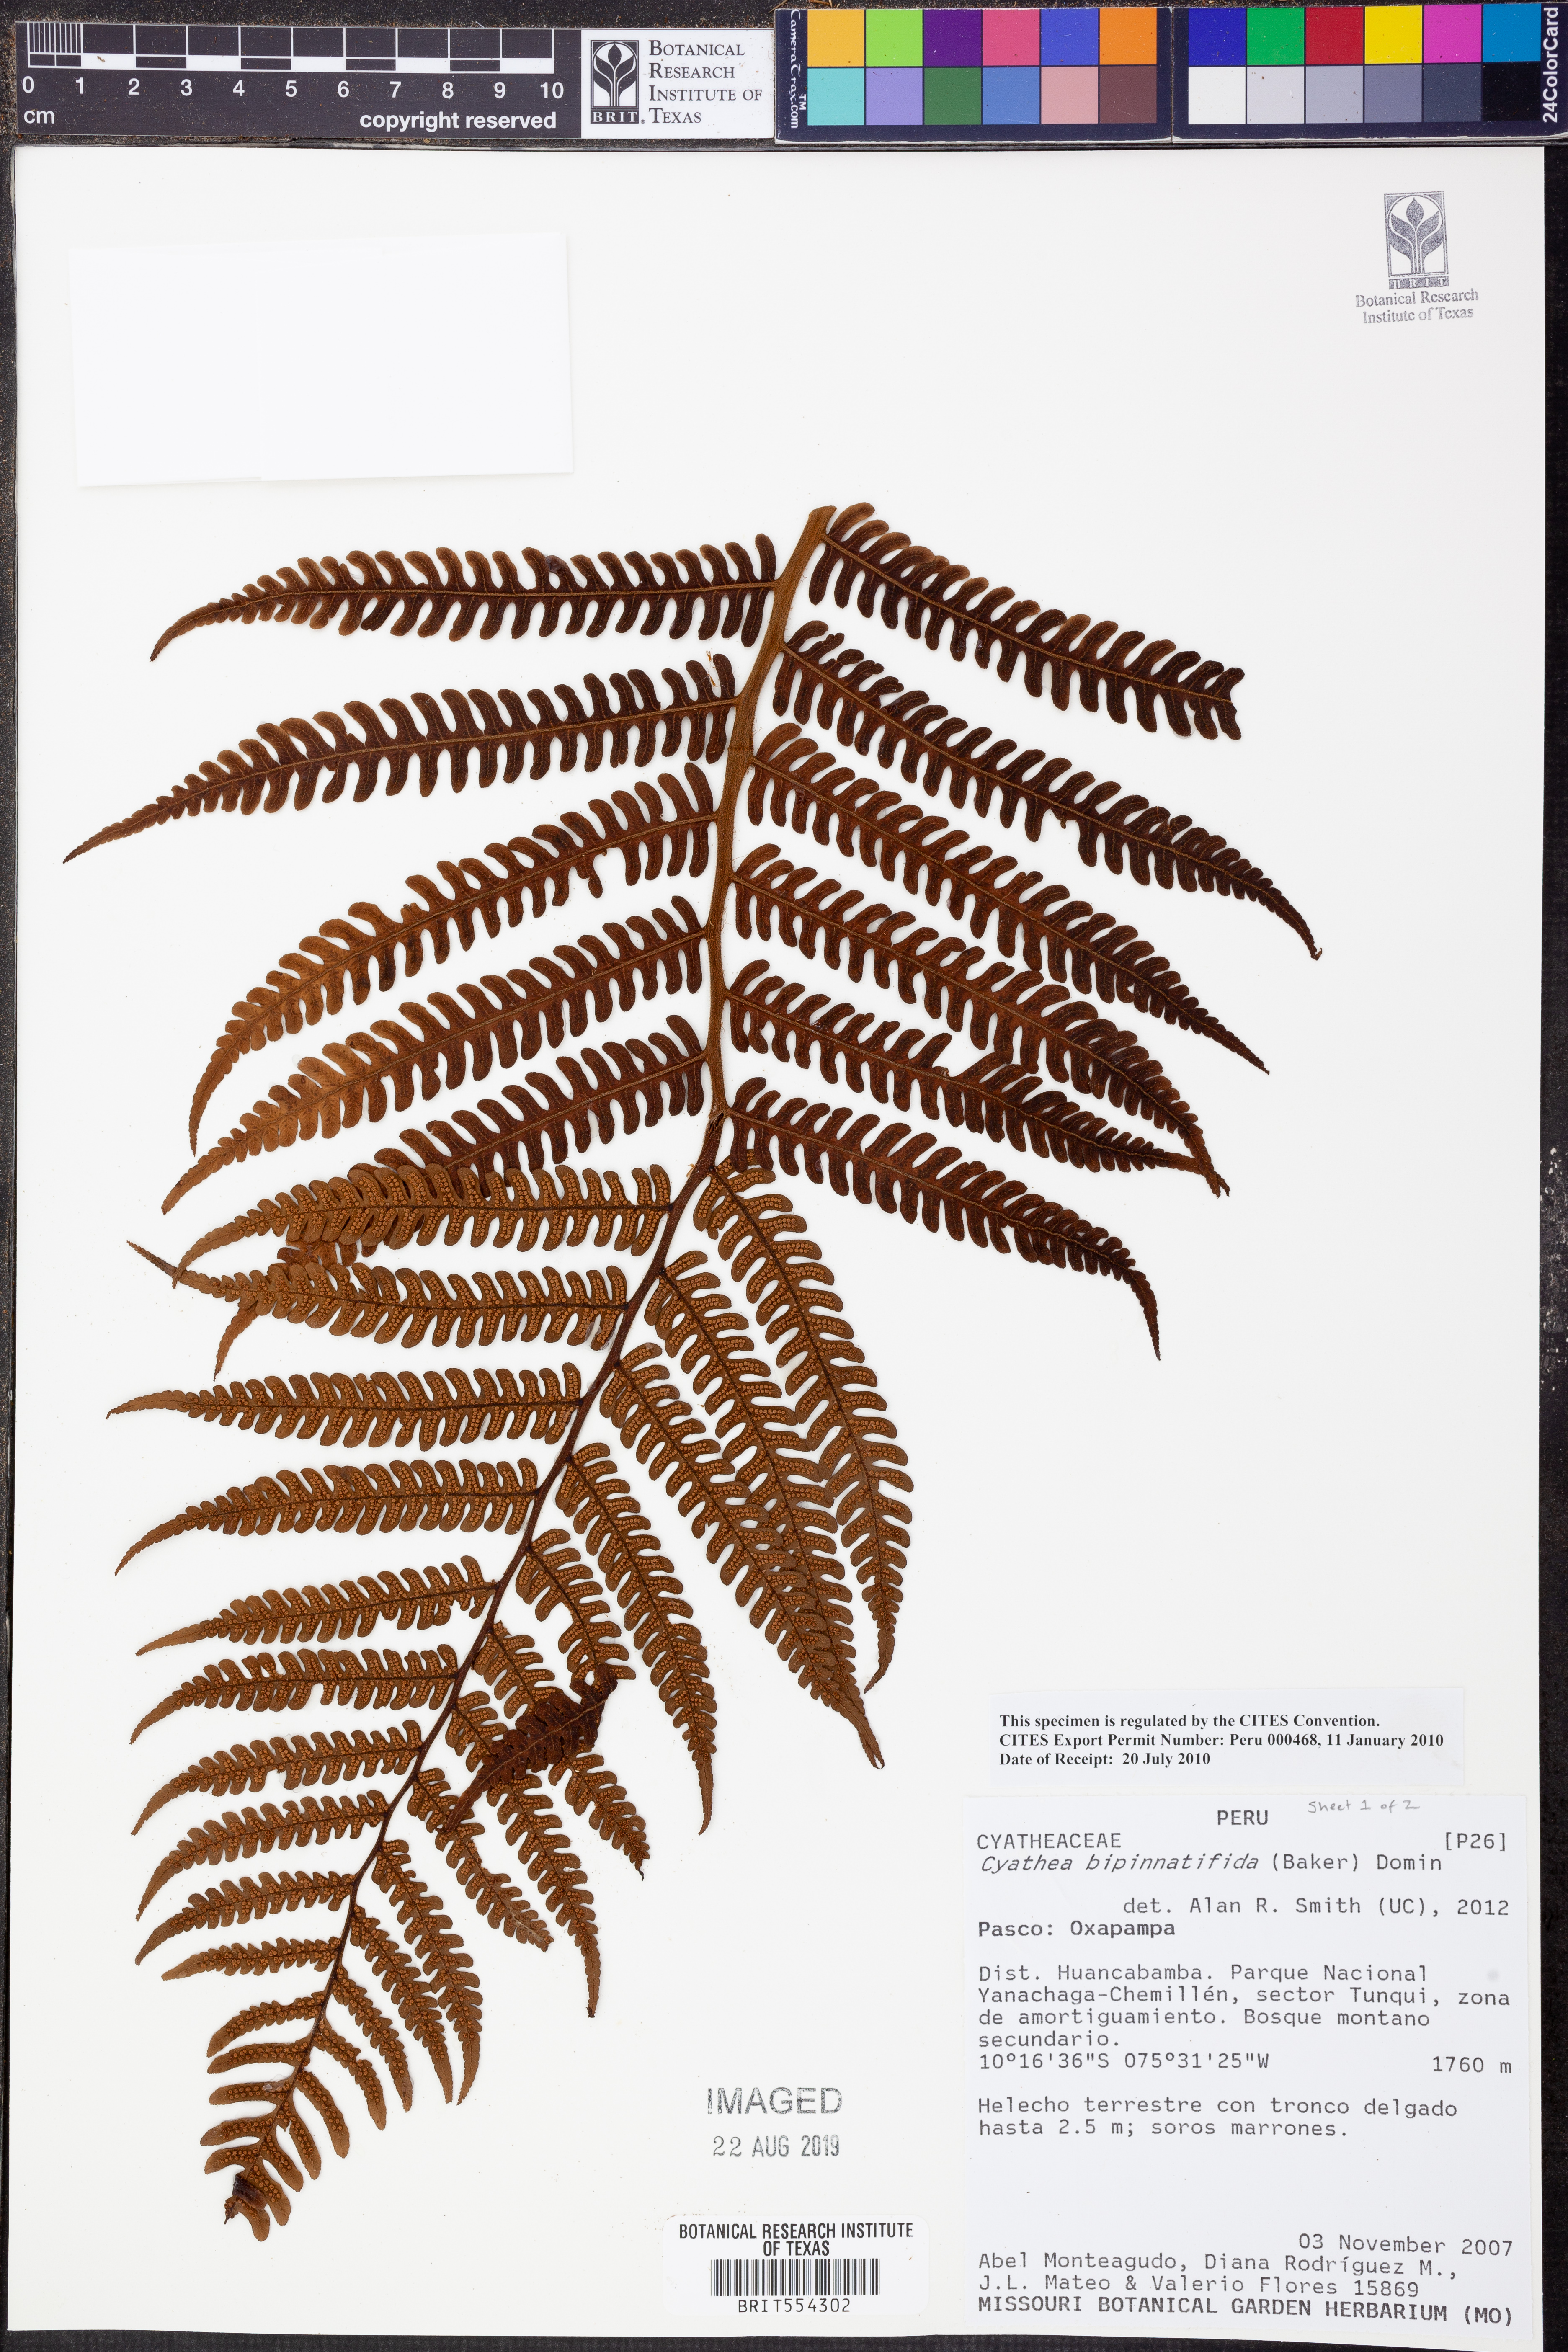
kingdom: Plantae
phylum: Tracheophyta
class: Polypodiopsida
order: Cyatheales
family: Cyatheaceae
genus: Cyathea
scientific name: Cyathea bipinnatifida
